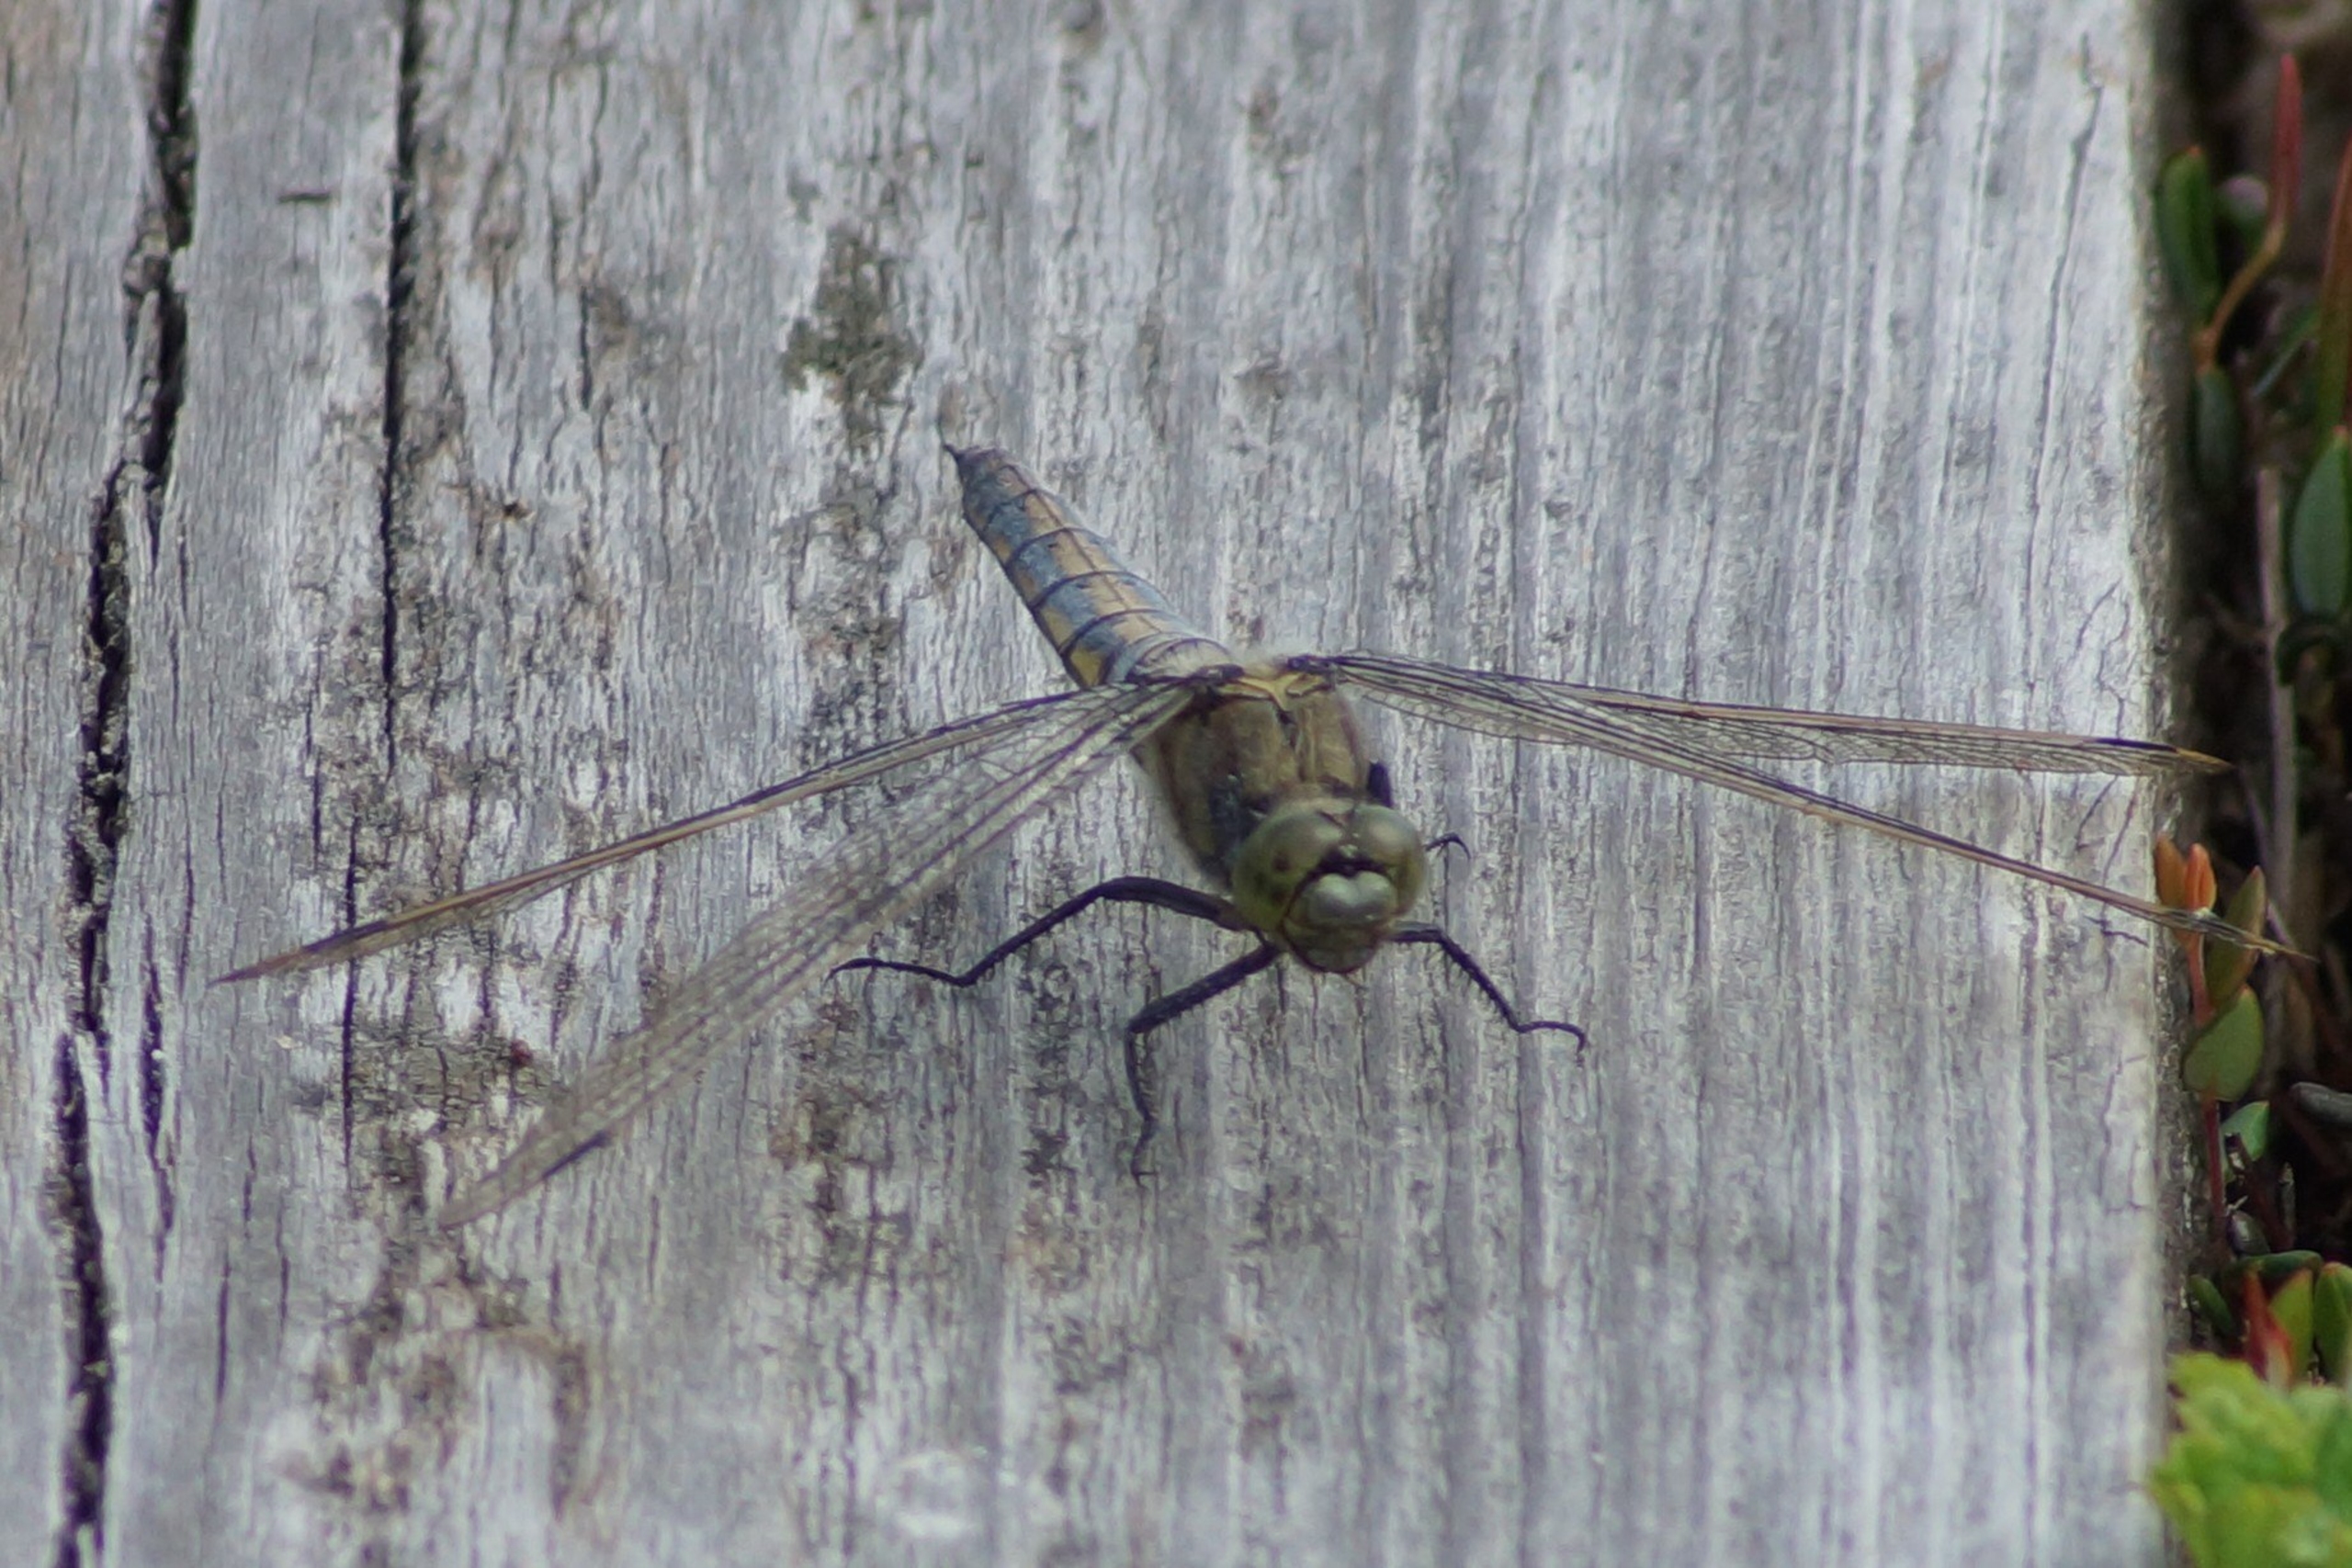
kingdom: Animalia
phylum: Arthropoda
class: Insecta
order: Odonata
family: Libellulidae
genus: Orthetrum
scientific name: Orthetrum cancellatum
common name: Stor blåpil
